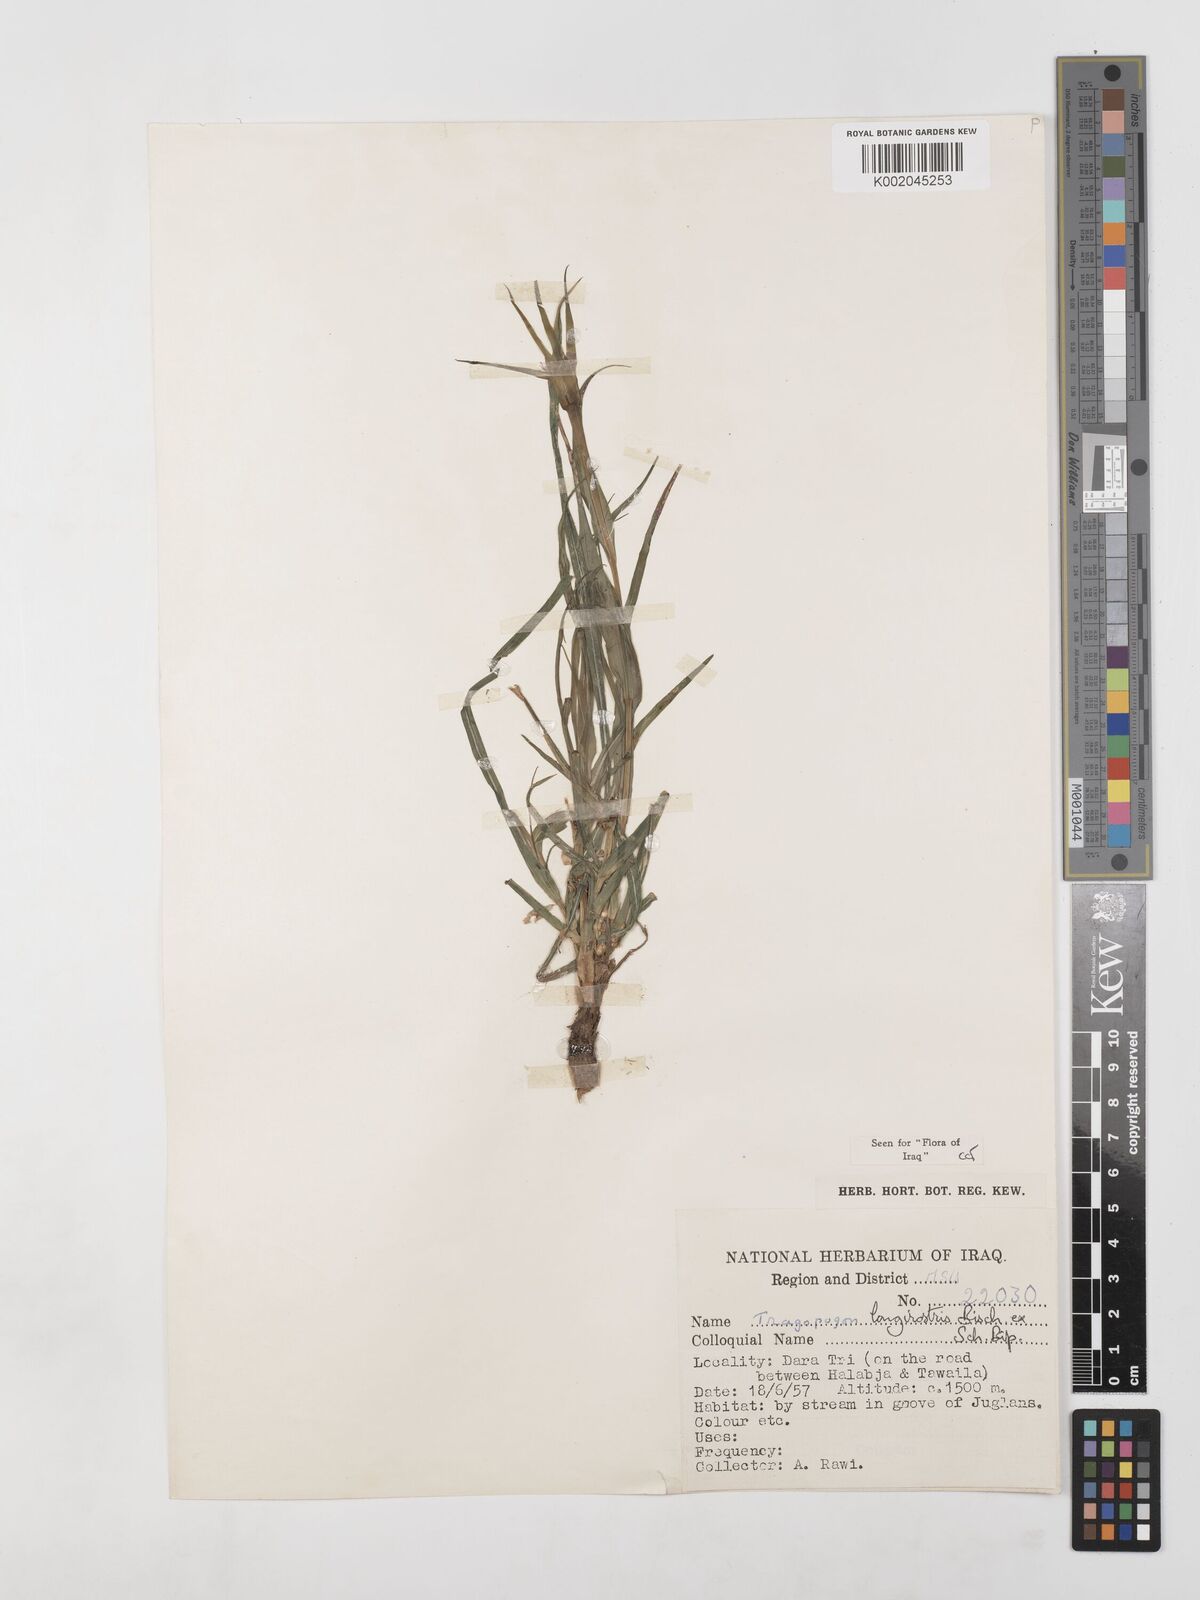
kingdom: Plantae
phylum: Tracheophyta
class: Magnoliopsida
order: Asterales
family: Asteraceae
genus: Tragopogon
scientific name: Tragopogon coelesyriacus
